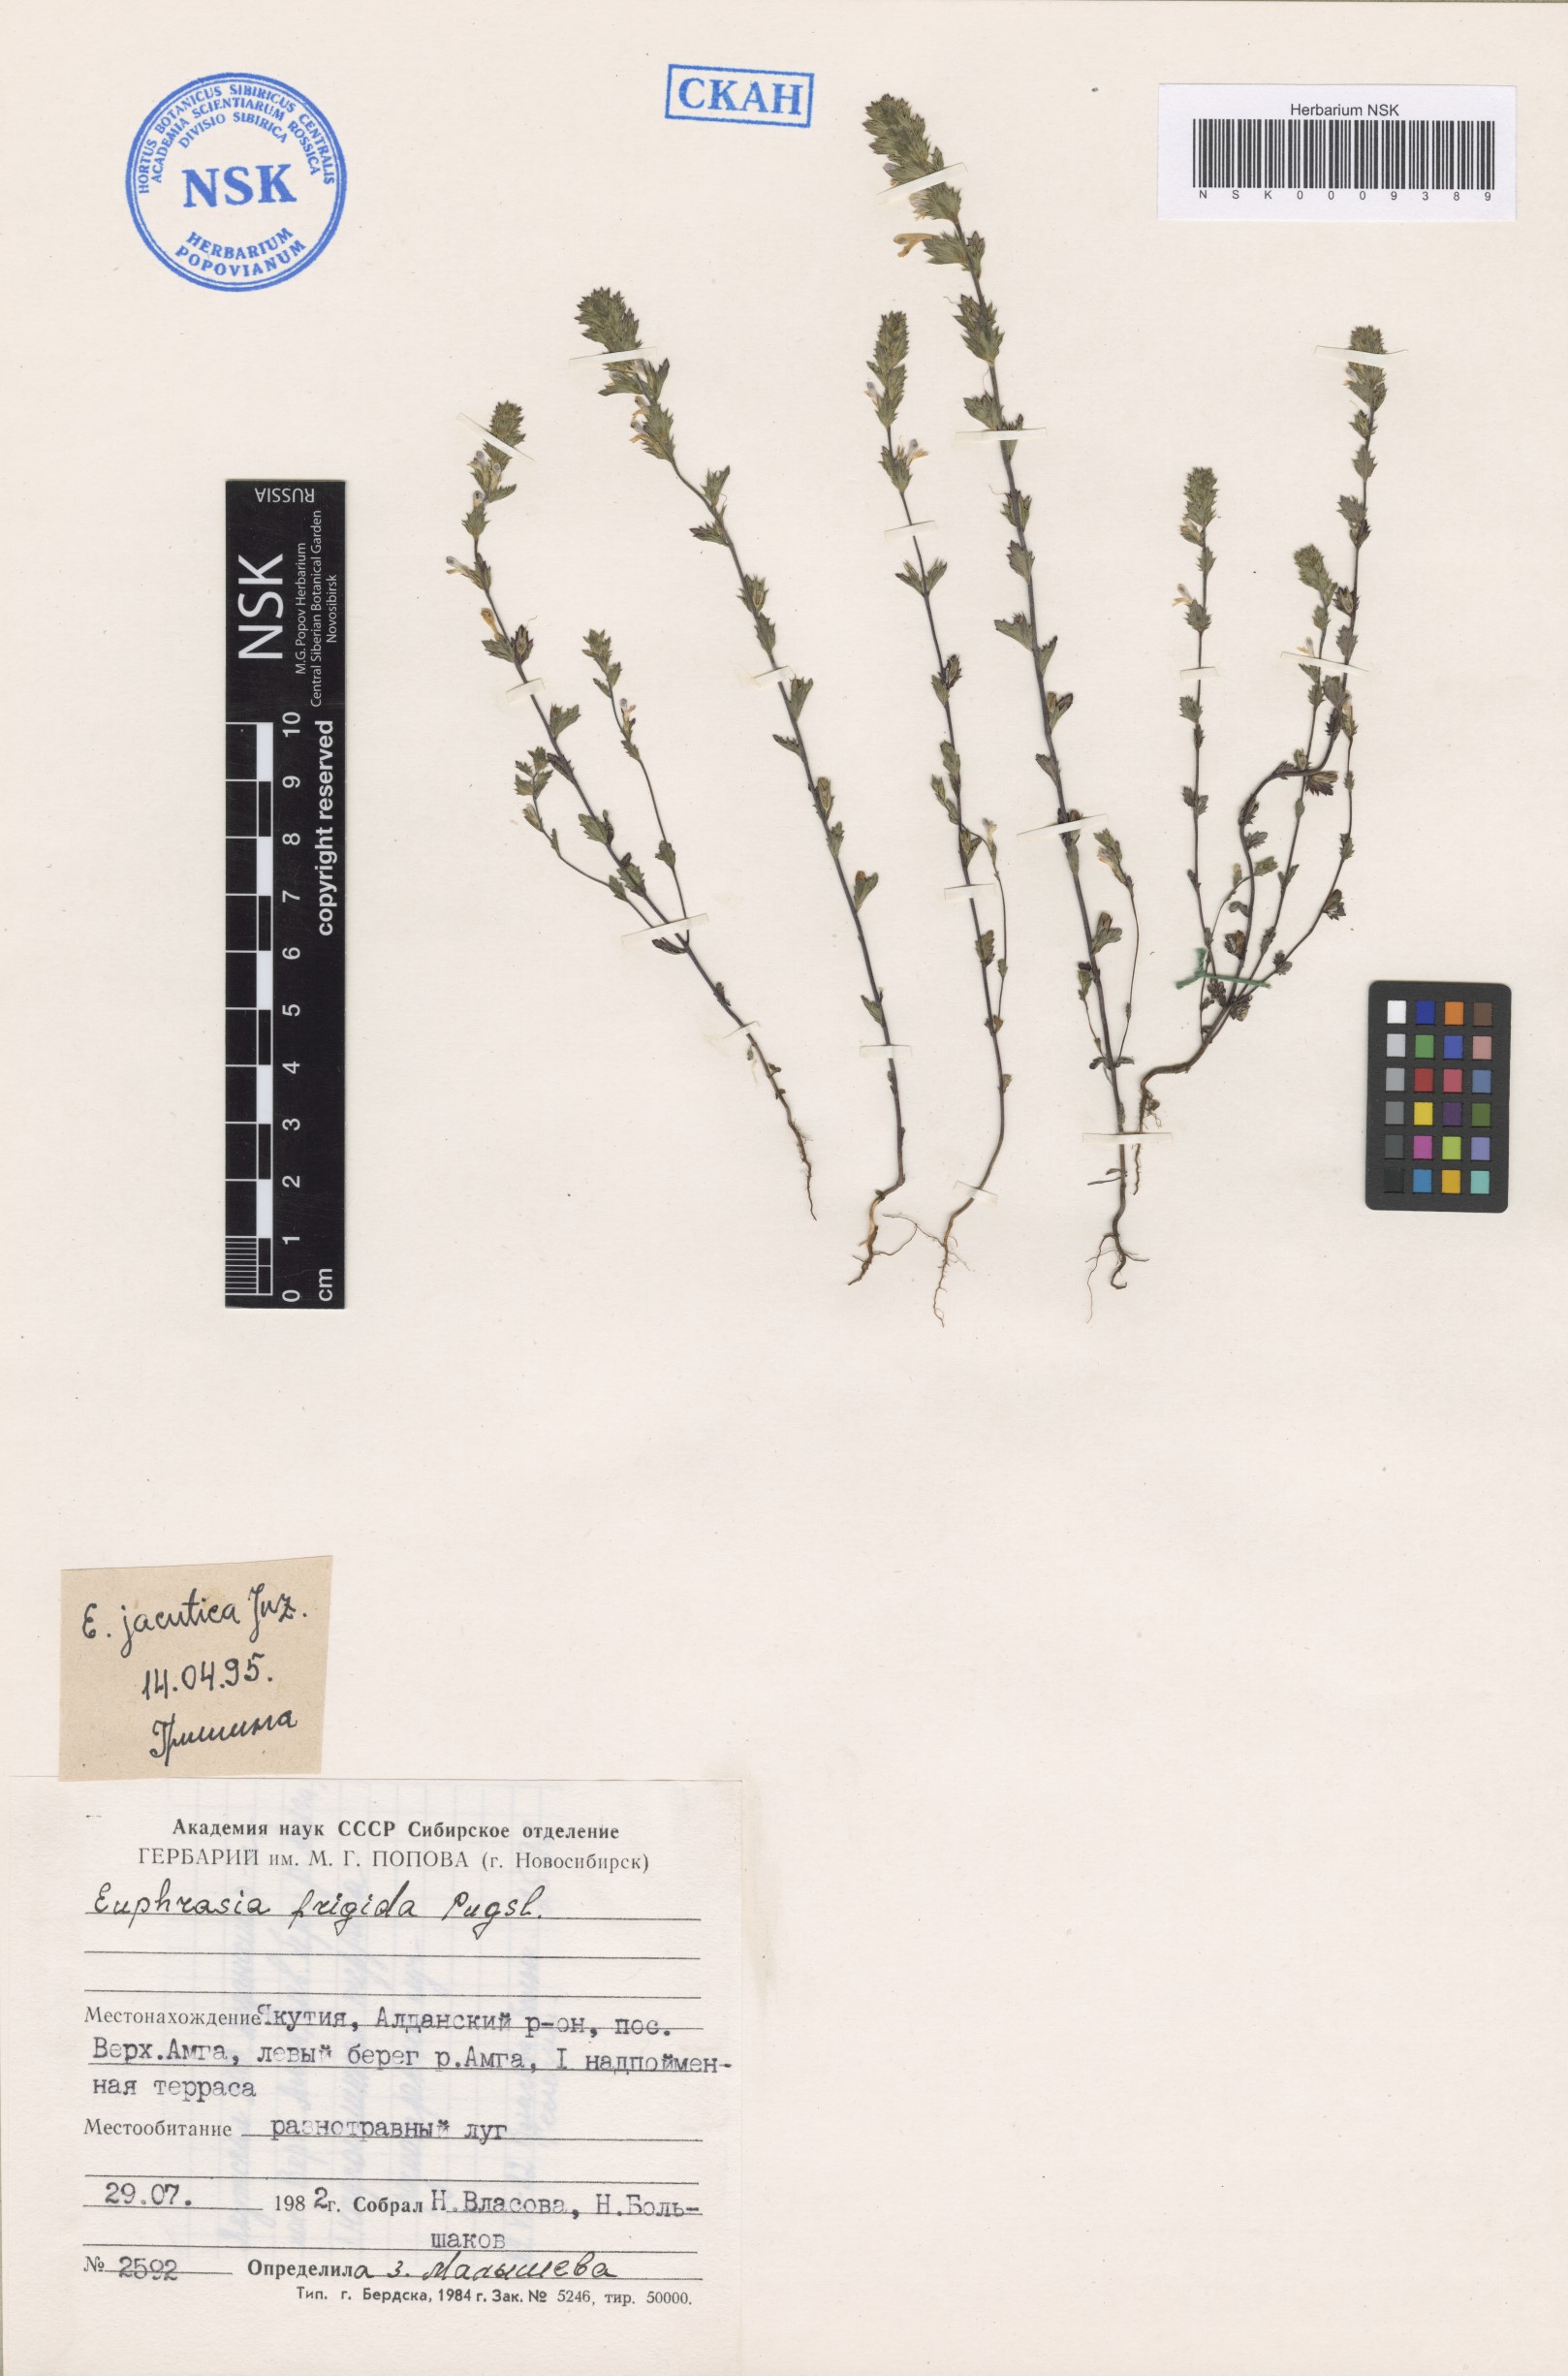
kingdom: Plantae
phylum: Tracheophyta
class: Magnoliopsida
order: Lamiales
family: Orobanchaceae
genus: Euphrasia
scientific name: Euphrasia jacutica
